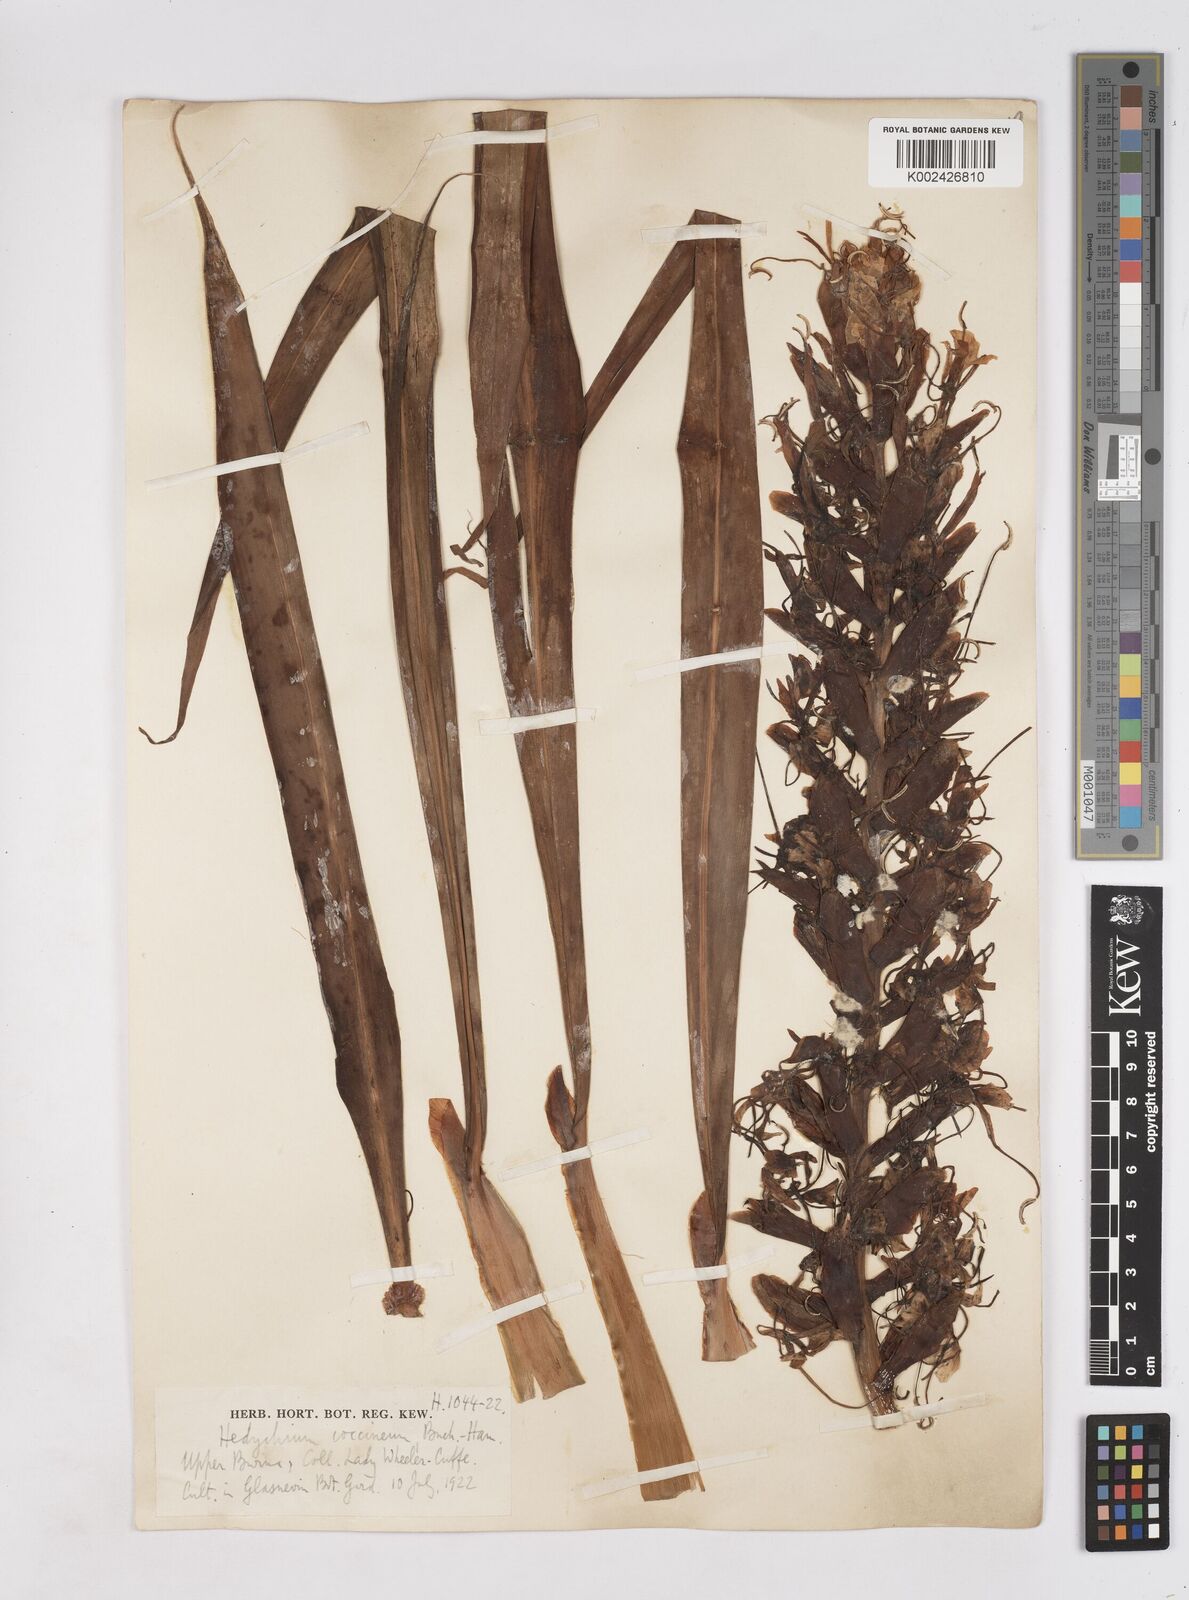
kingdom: Plantae
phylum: Tracheophyta
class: Liliopsida
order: Zingiberales
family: Zingiberaceae
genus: Hedychium
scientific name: Hedychium coccineum
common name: Red ginger-lily
